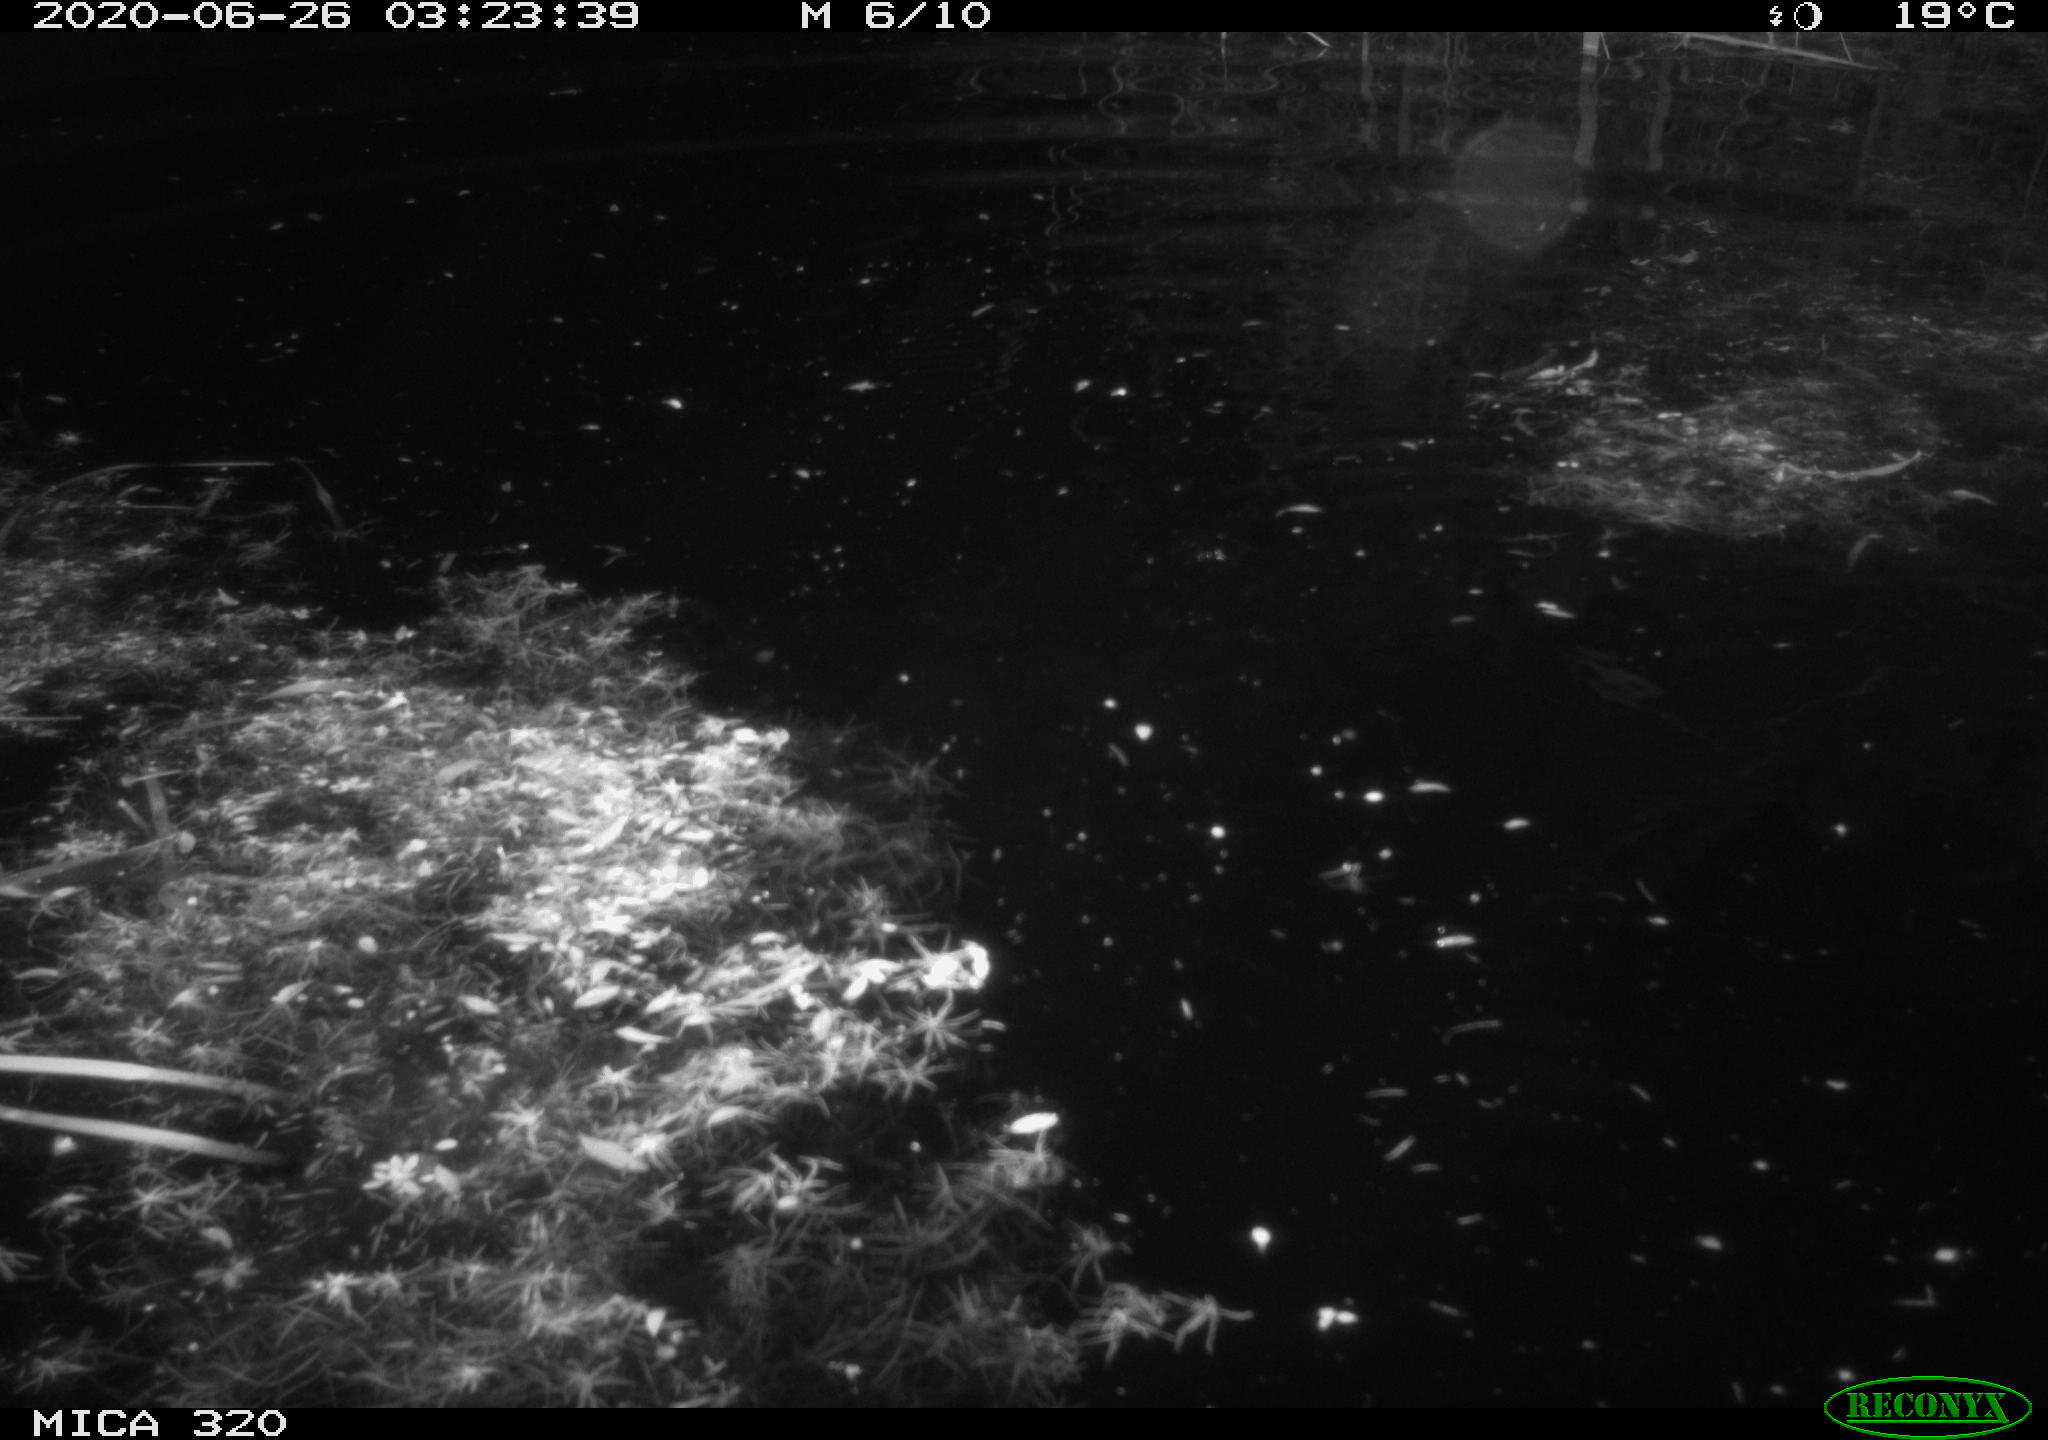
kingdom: Animalia
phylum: Chordata
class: Aves
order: Anseriformes
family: Anatidae
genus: Anas
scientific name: Anas platyrhynchos
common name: Mallard
